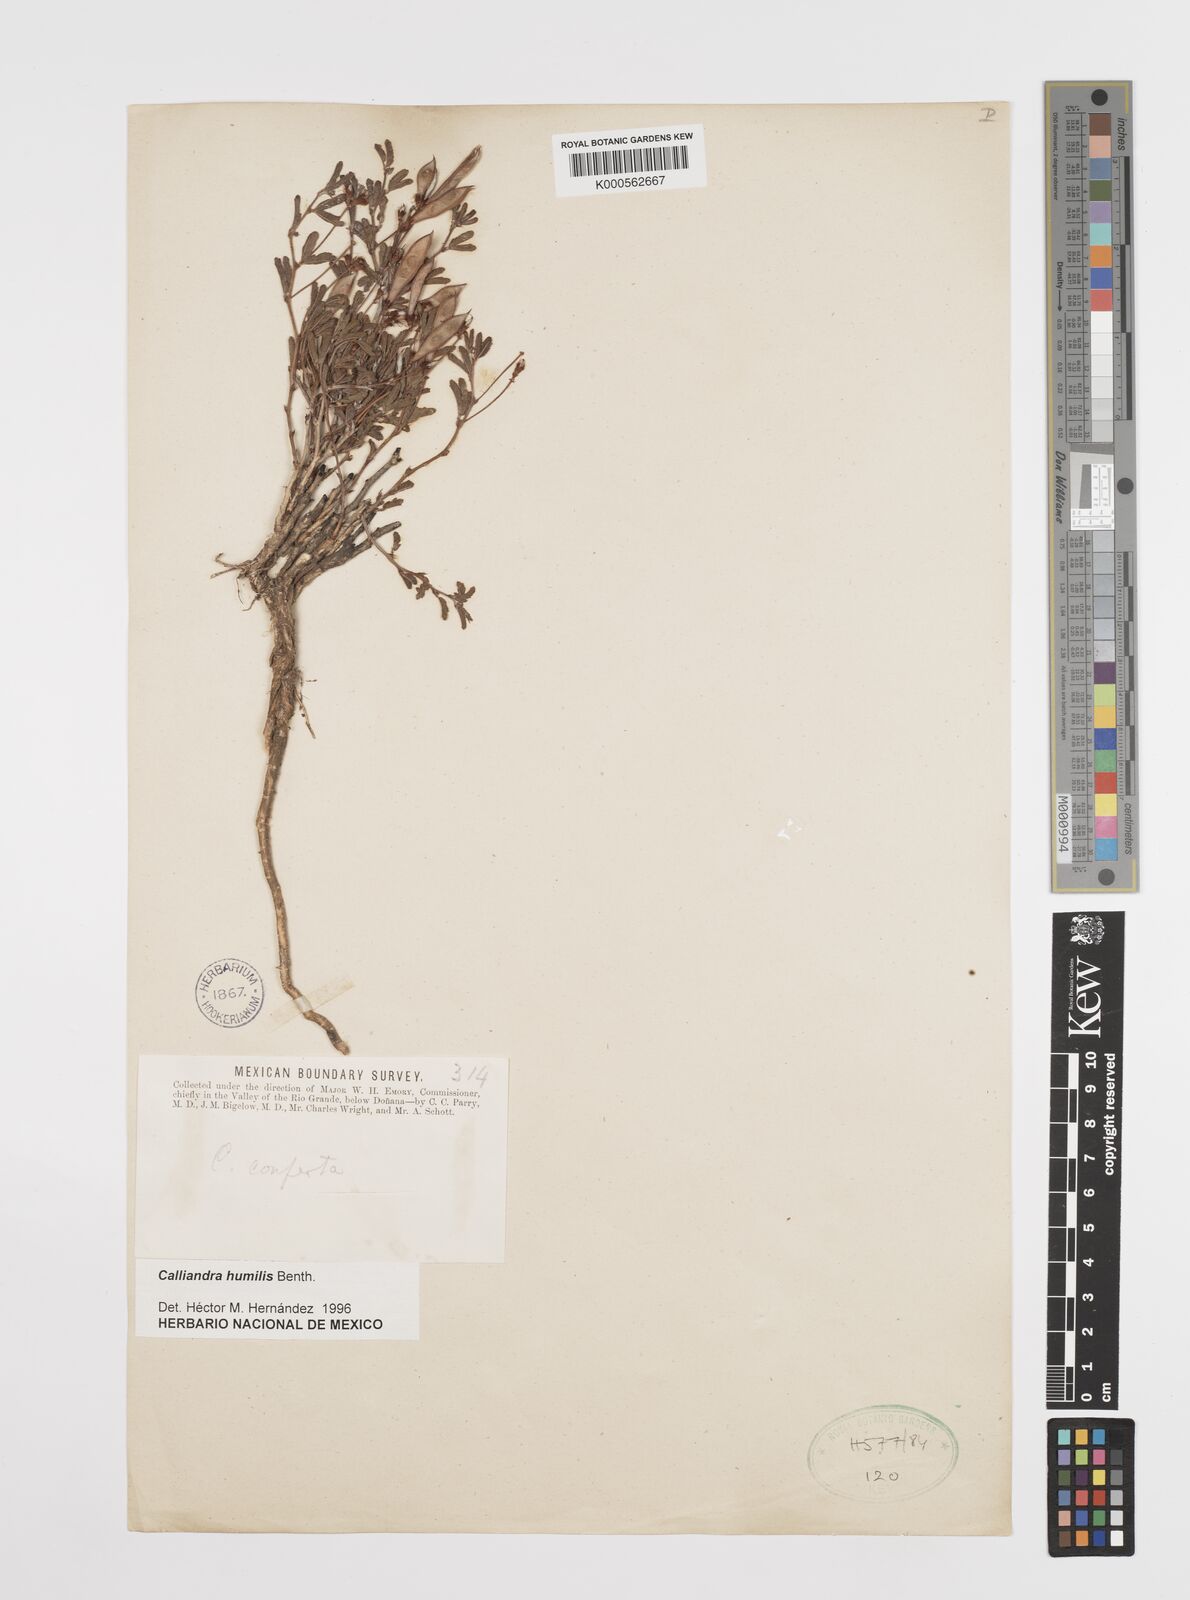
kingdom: Plantae
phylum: Tracheophyta
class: Magnoliopsida
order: Fabales
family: Fabaceae
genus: Calliandra
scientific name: Calliandra humilis
